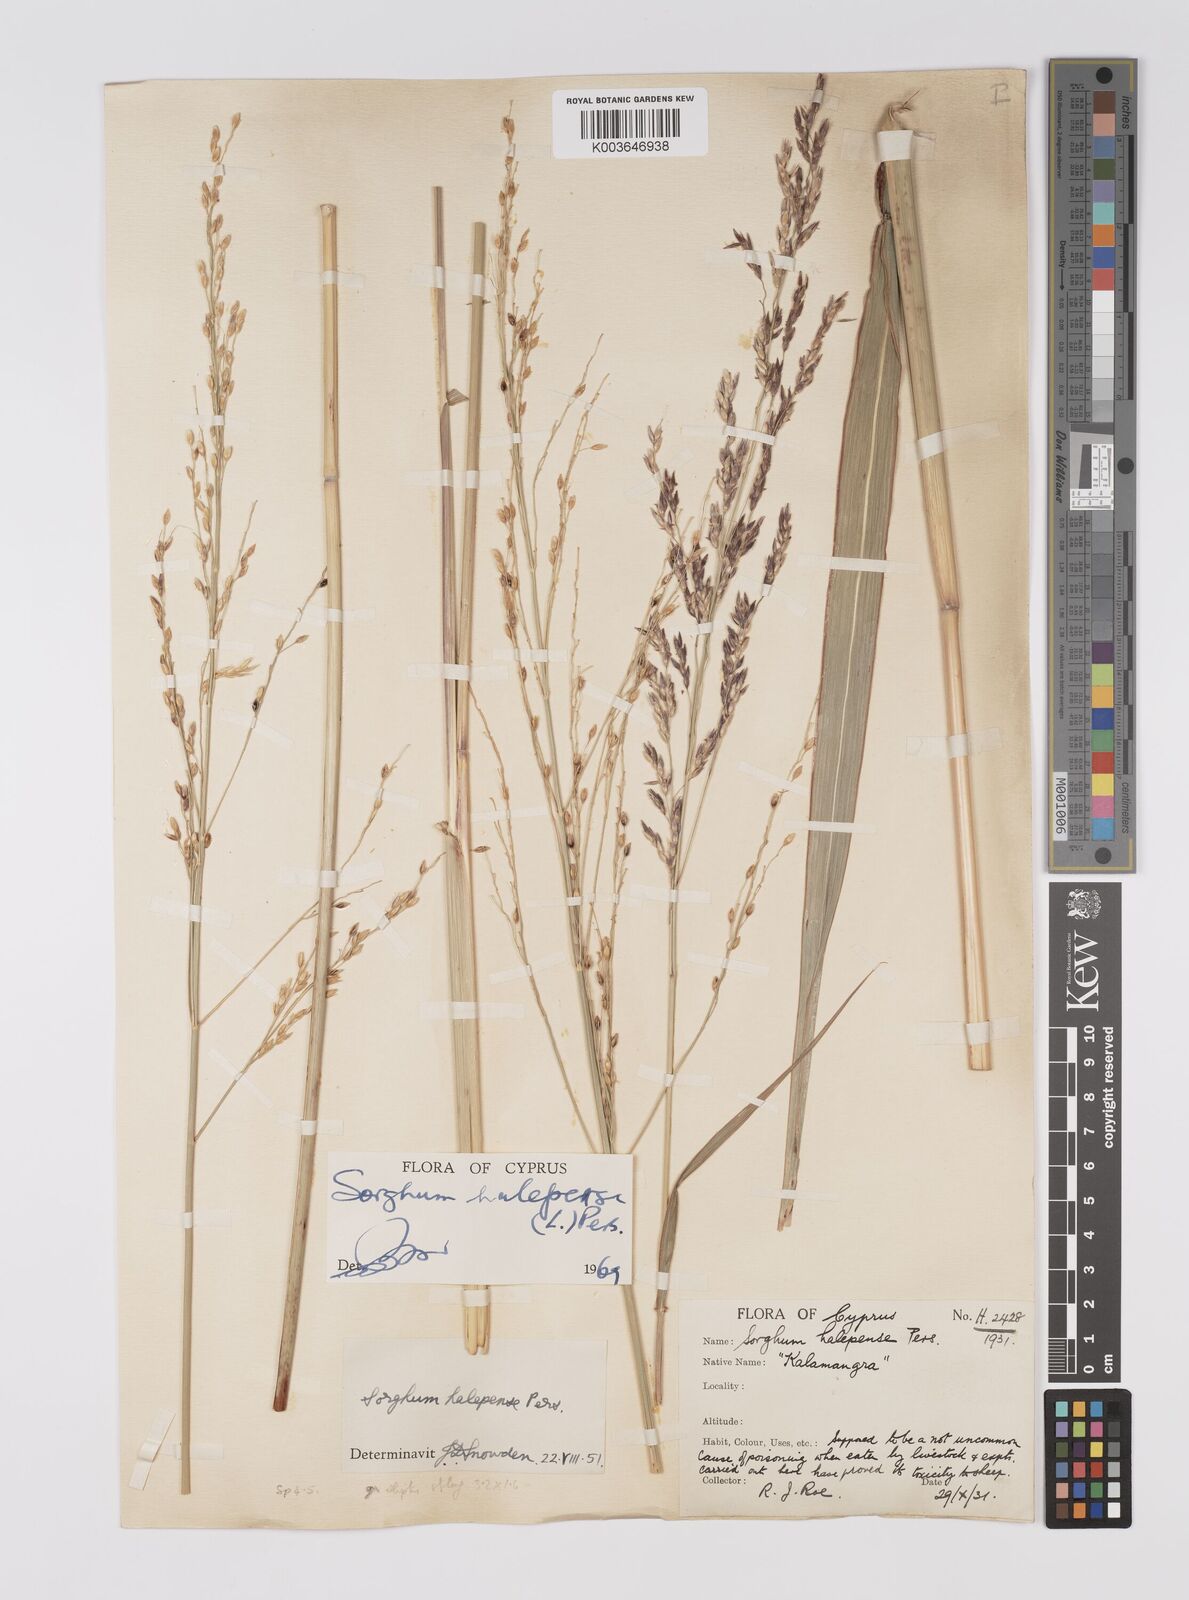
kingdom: Plantae
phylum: Tracheophyta
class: Liliopsida
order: Poales
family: Poaceae
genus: Sorghum
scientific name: Sorghum halepense
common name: Johnson-grass
